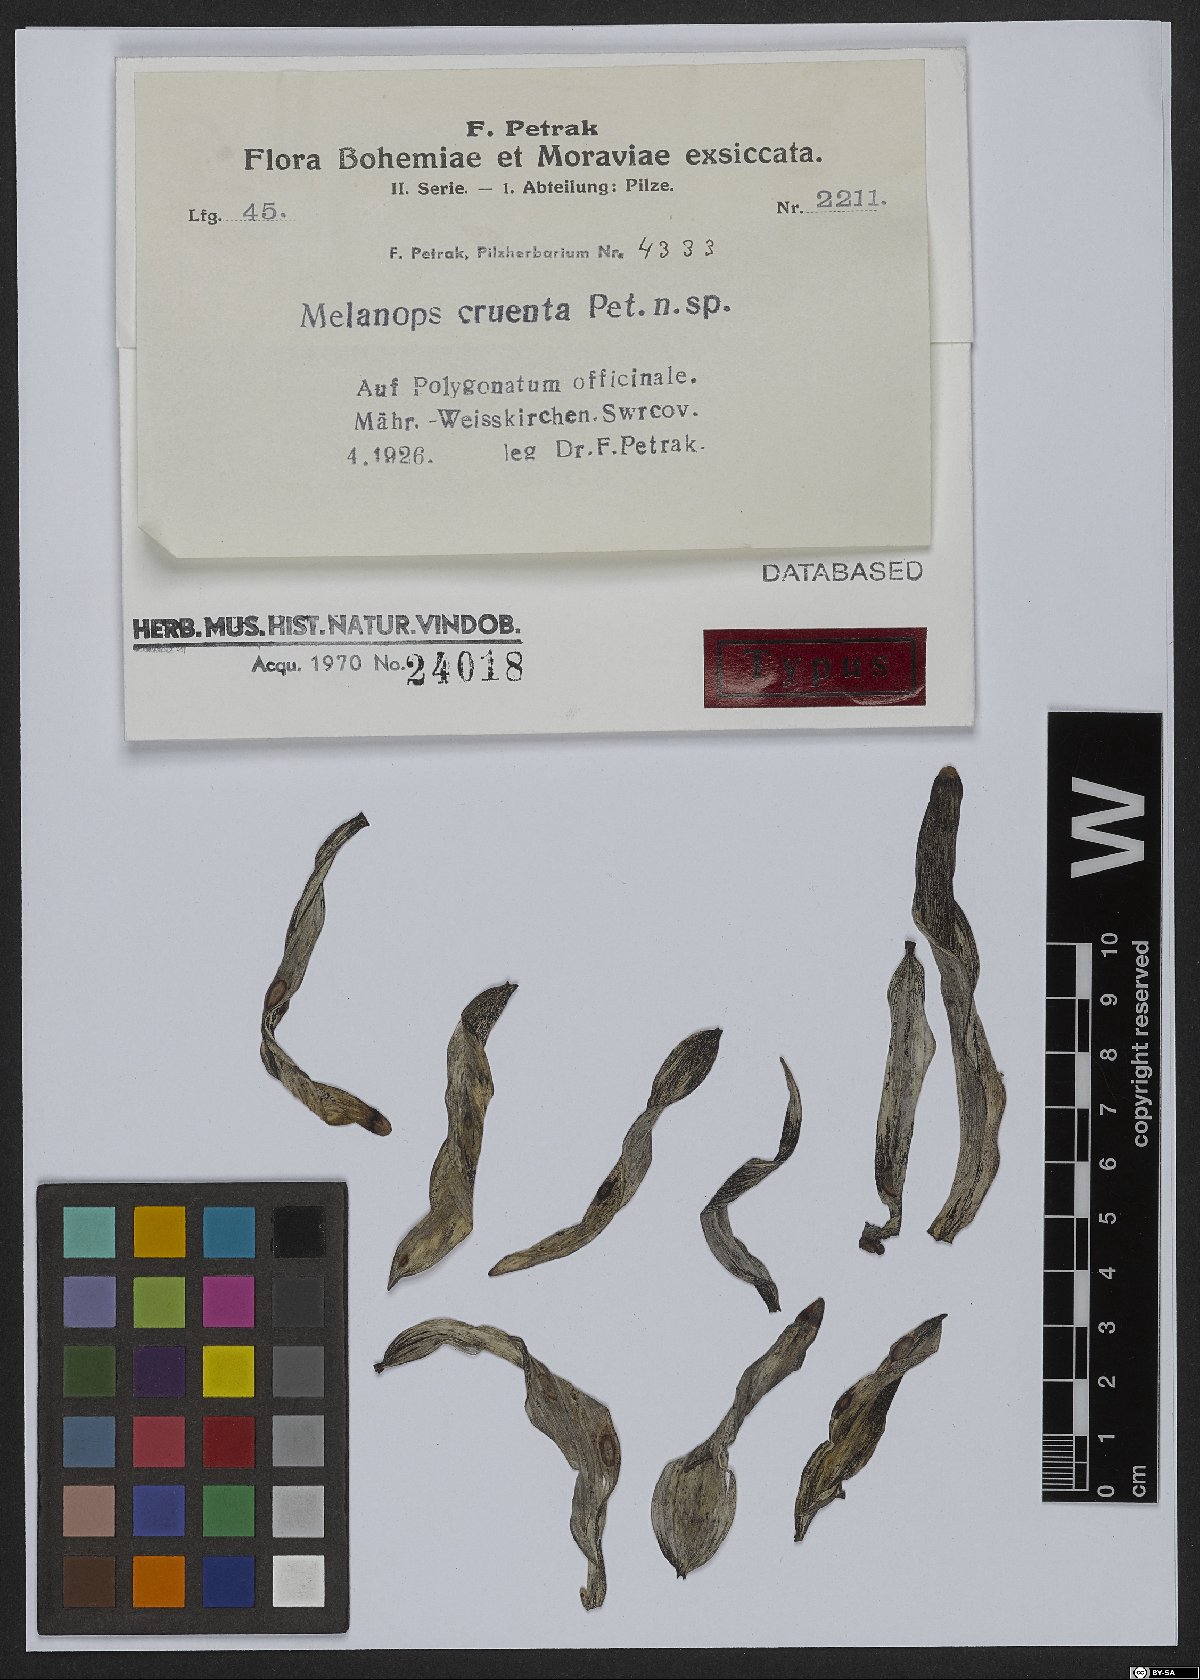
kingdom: Fungi
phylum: Ascomycota
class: Dothideomycetes
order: Botryosphaeriales
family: Botryosphaeriaceae
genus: Neofusicoccum
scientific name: Neofusicoccum cruentum ter
